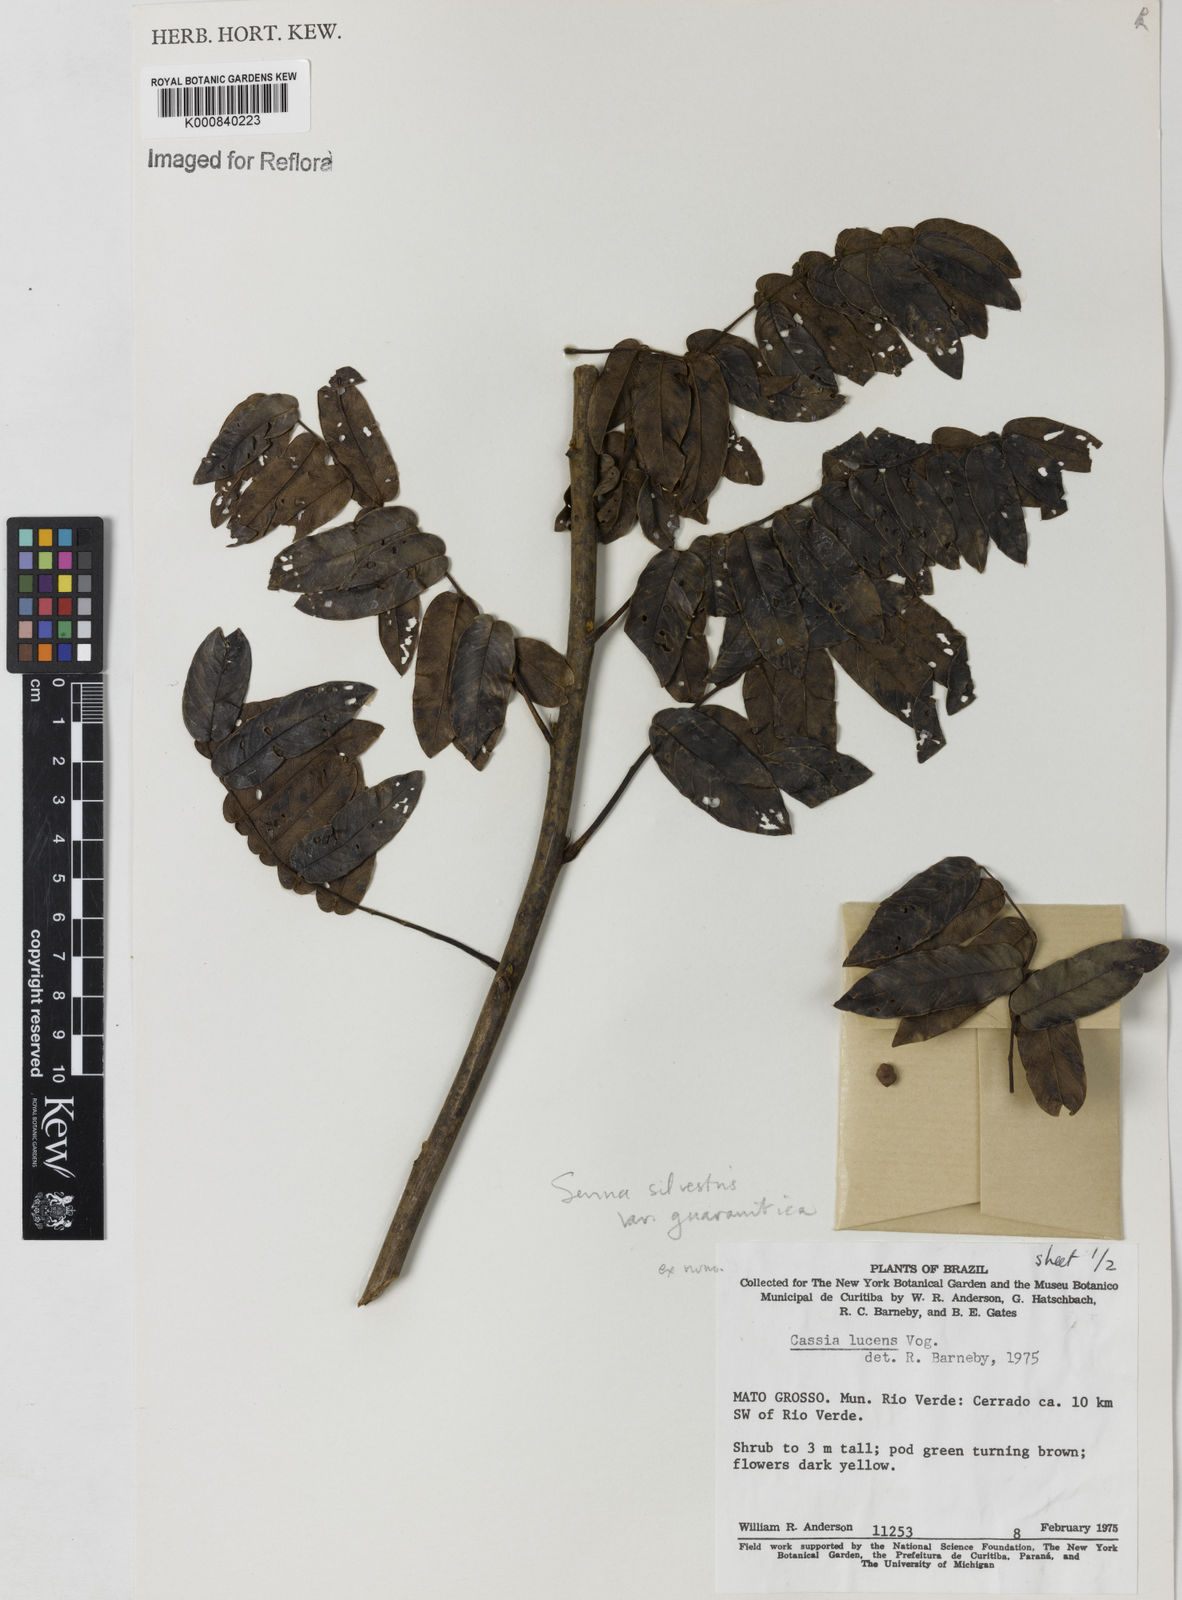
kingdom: Plantae
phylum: Tracheophyta
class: Magnoliopsida
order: Fabales
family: Fabaceae
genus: Senna
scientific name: Senna silvestris
